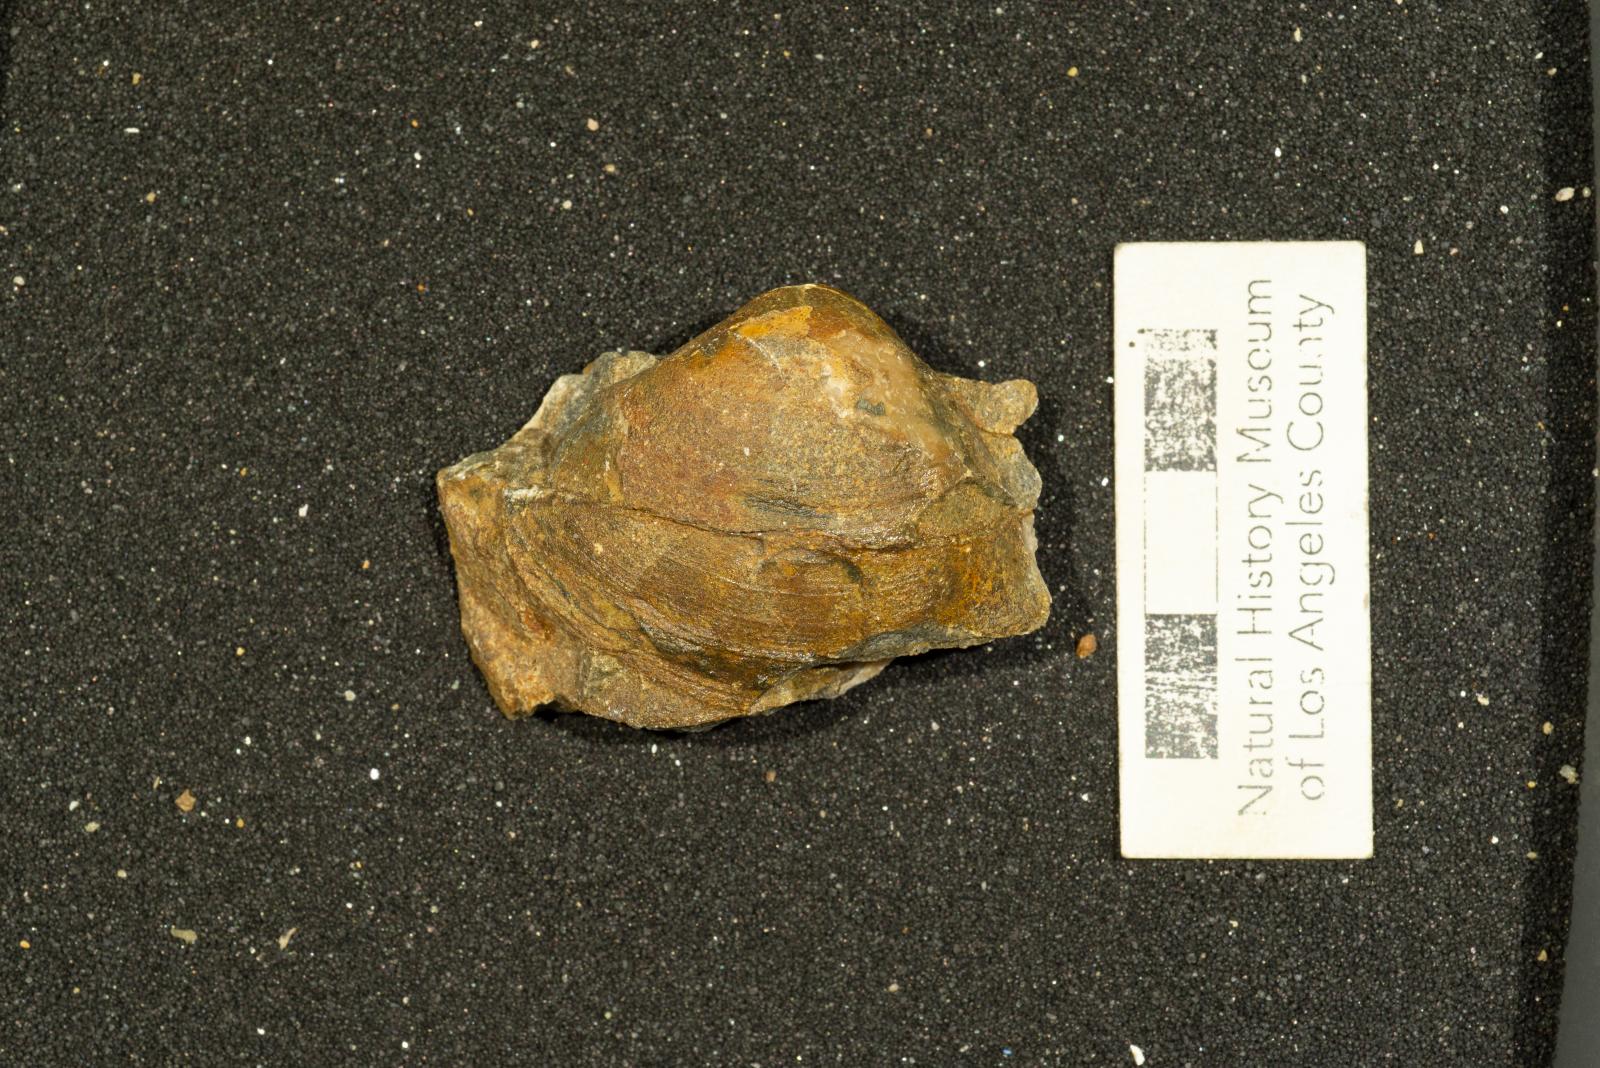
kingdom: Animalia
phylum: Mollusca
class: Bivalvia
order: Carditida
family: Crassatellidae
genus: Crassinella
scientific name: Crassinella
